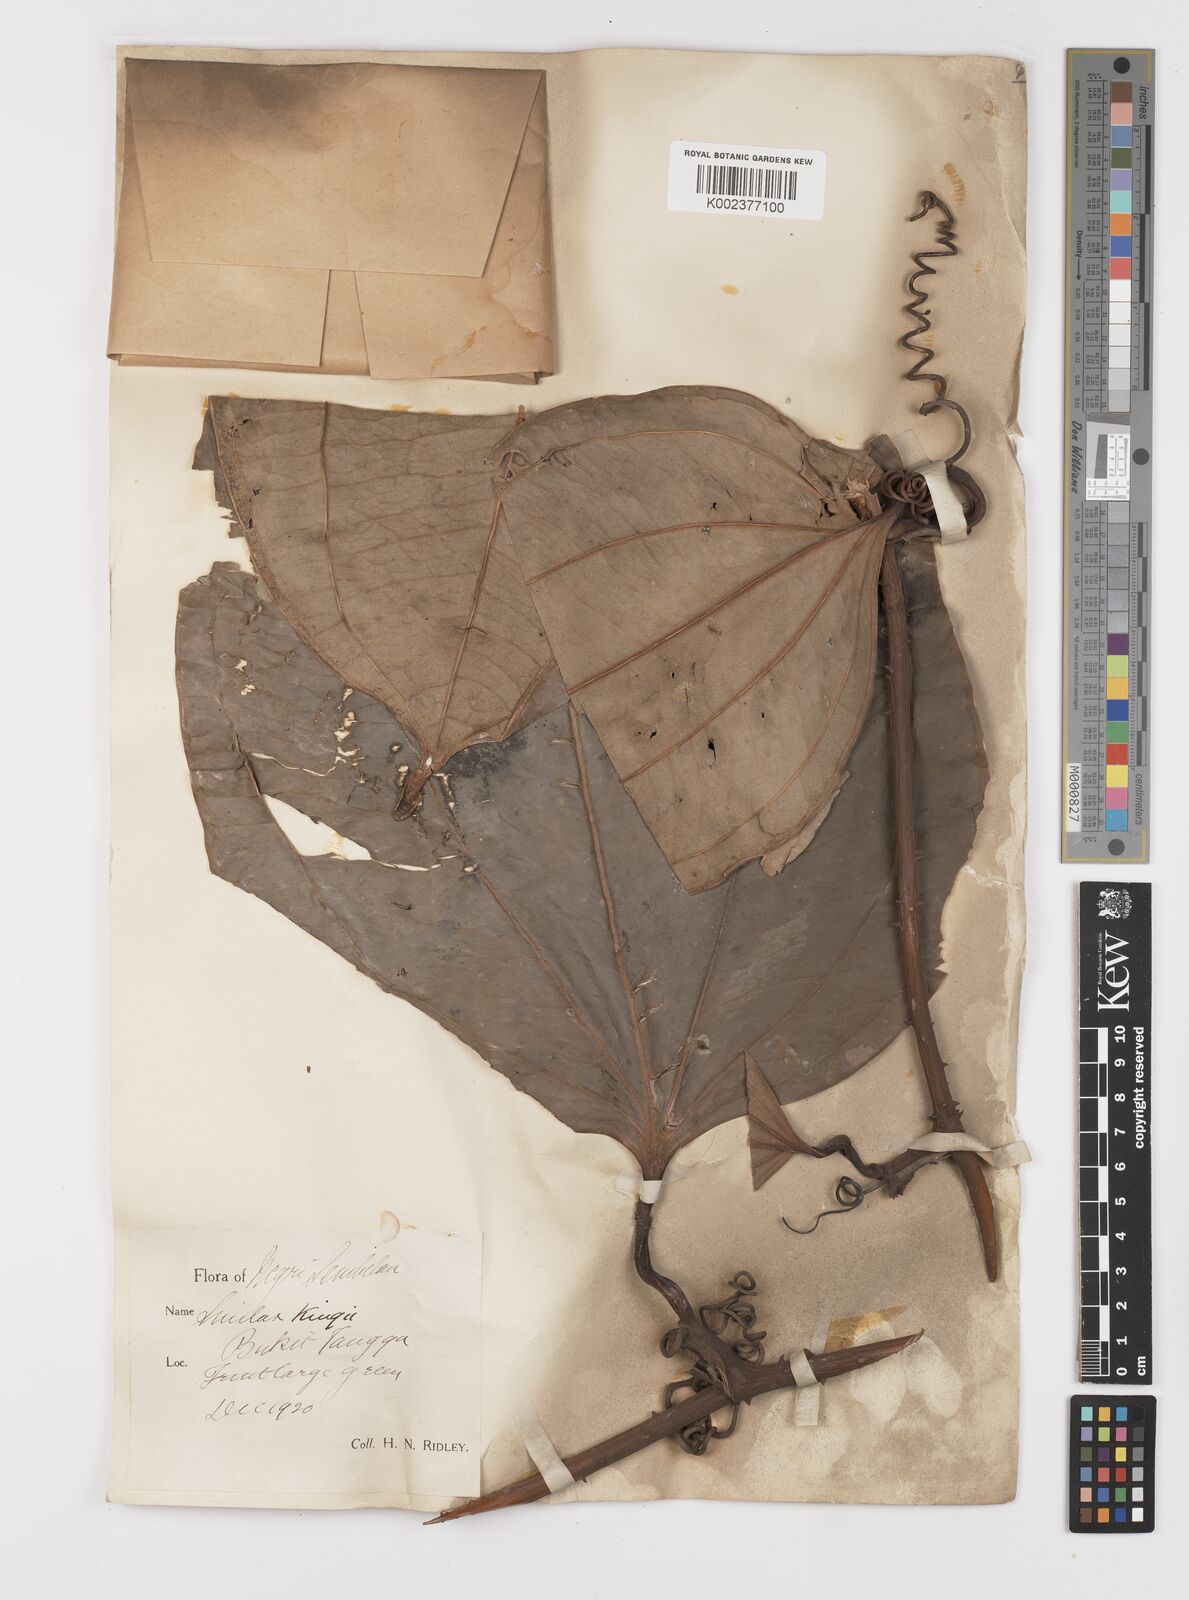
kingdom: Plantae
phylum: Tracheophyta
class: Liliopsida
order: Liliales
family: Smilacaceae
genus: Smilax
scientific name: Smilax kingii
